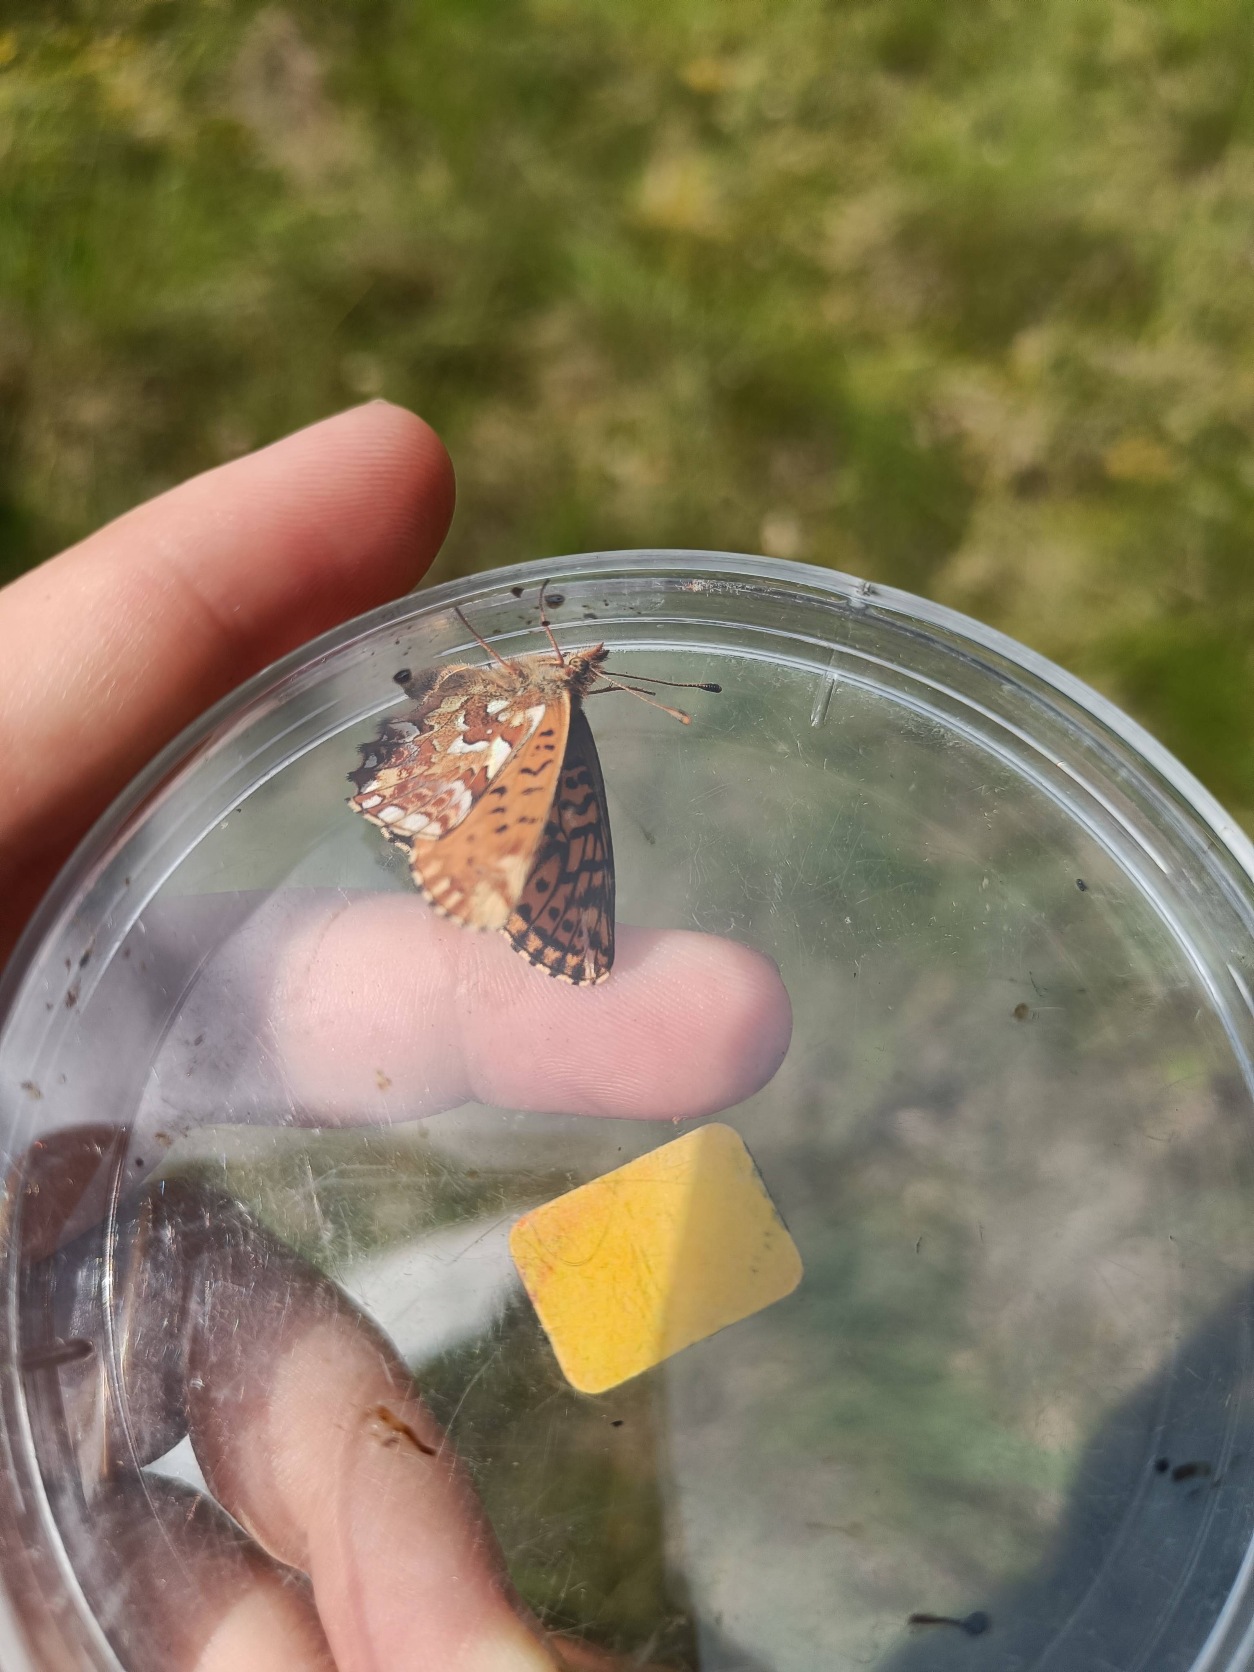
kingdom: Animalia
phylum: Arthropoda
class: Insecta
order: Lepidoptera
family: Nymphalidae
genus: Boloria
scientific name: Boloria aquilonaris
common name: Moseperlemorsommerfugl
